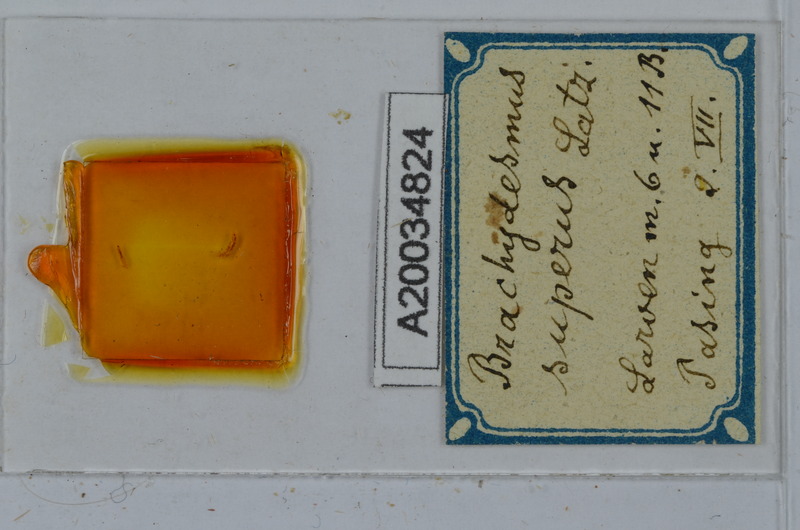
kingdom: Animalia
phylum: Arthropoda
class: Diplopoda
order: Polydesmida
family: Polydesmidae
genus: Brachydesmus
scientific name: Brachydesmus superus
